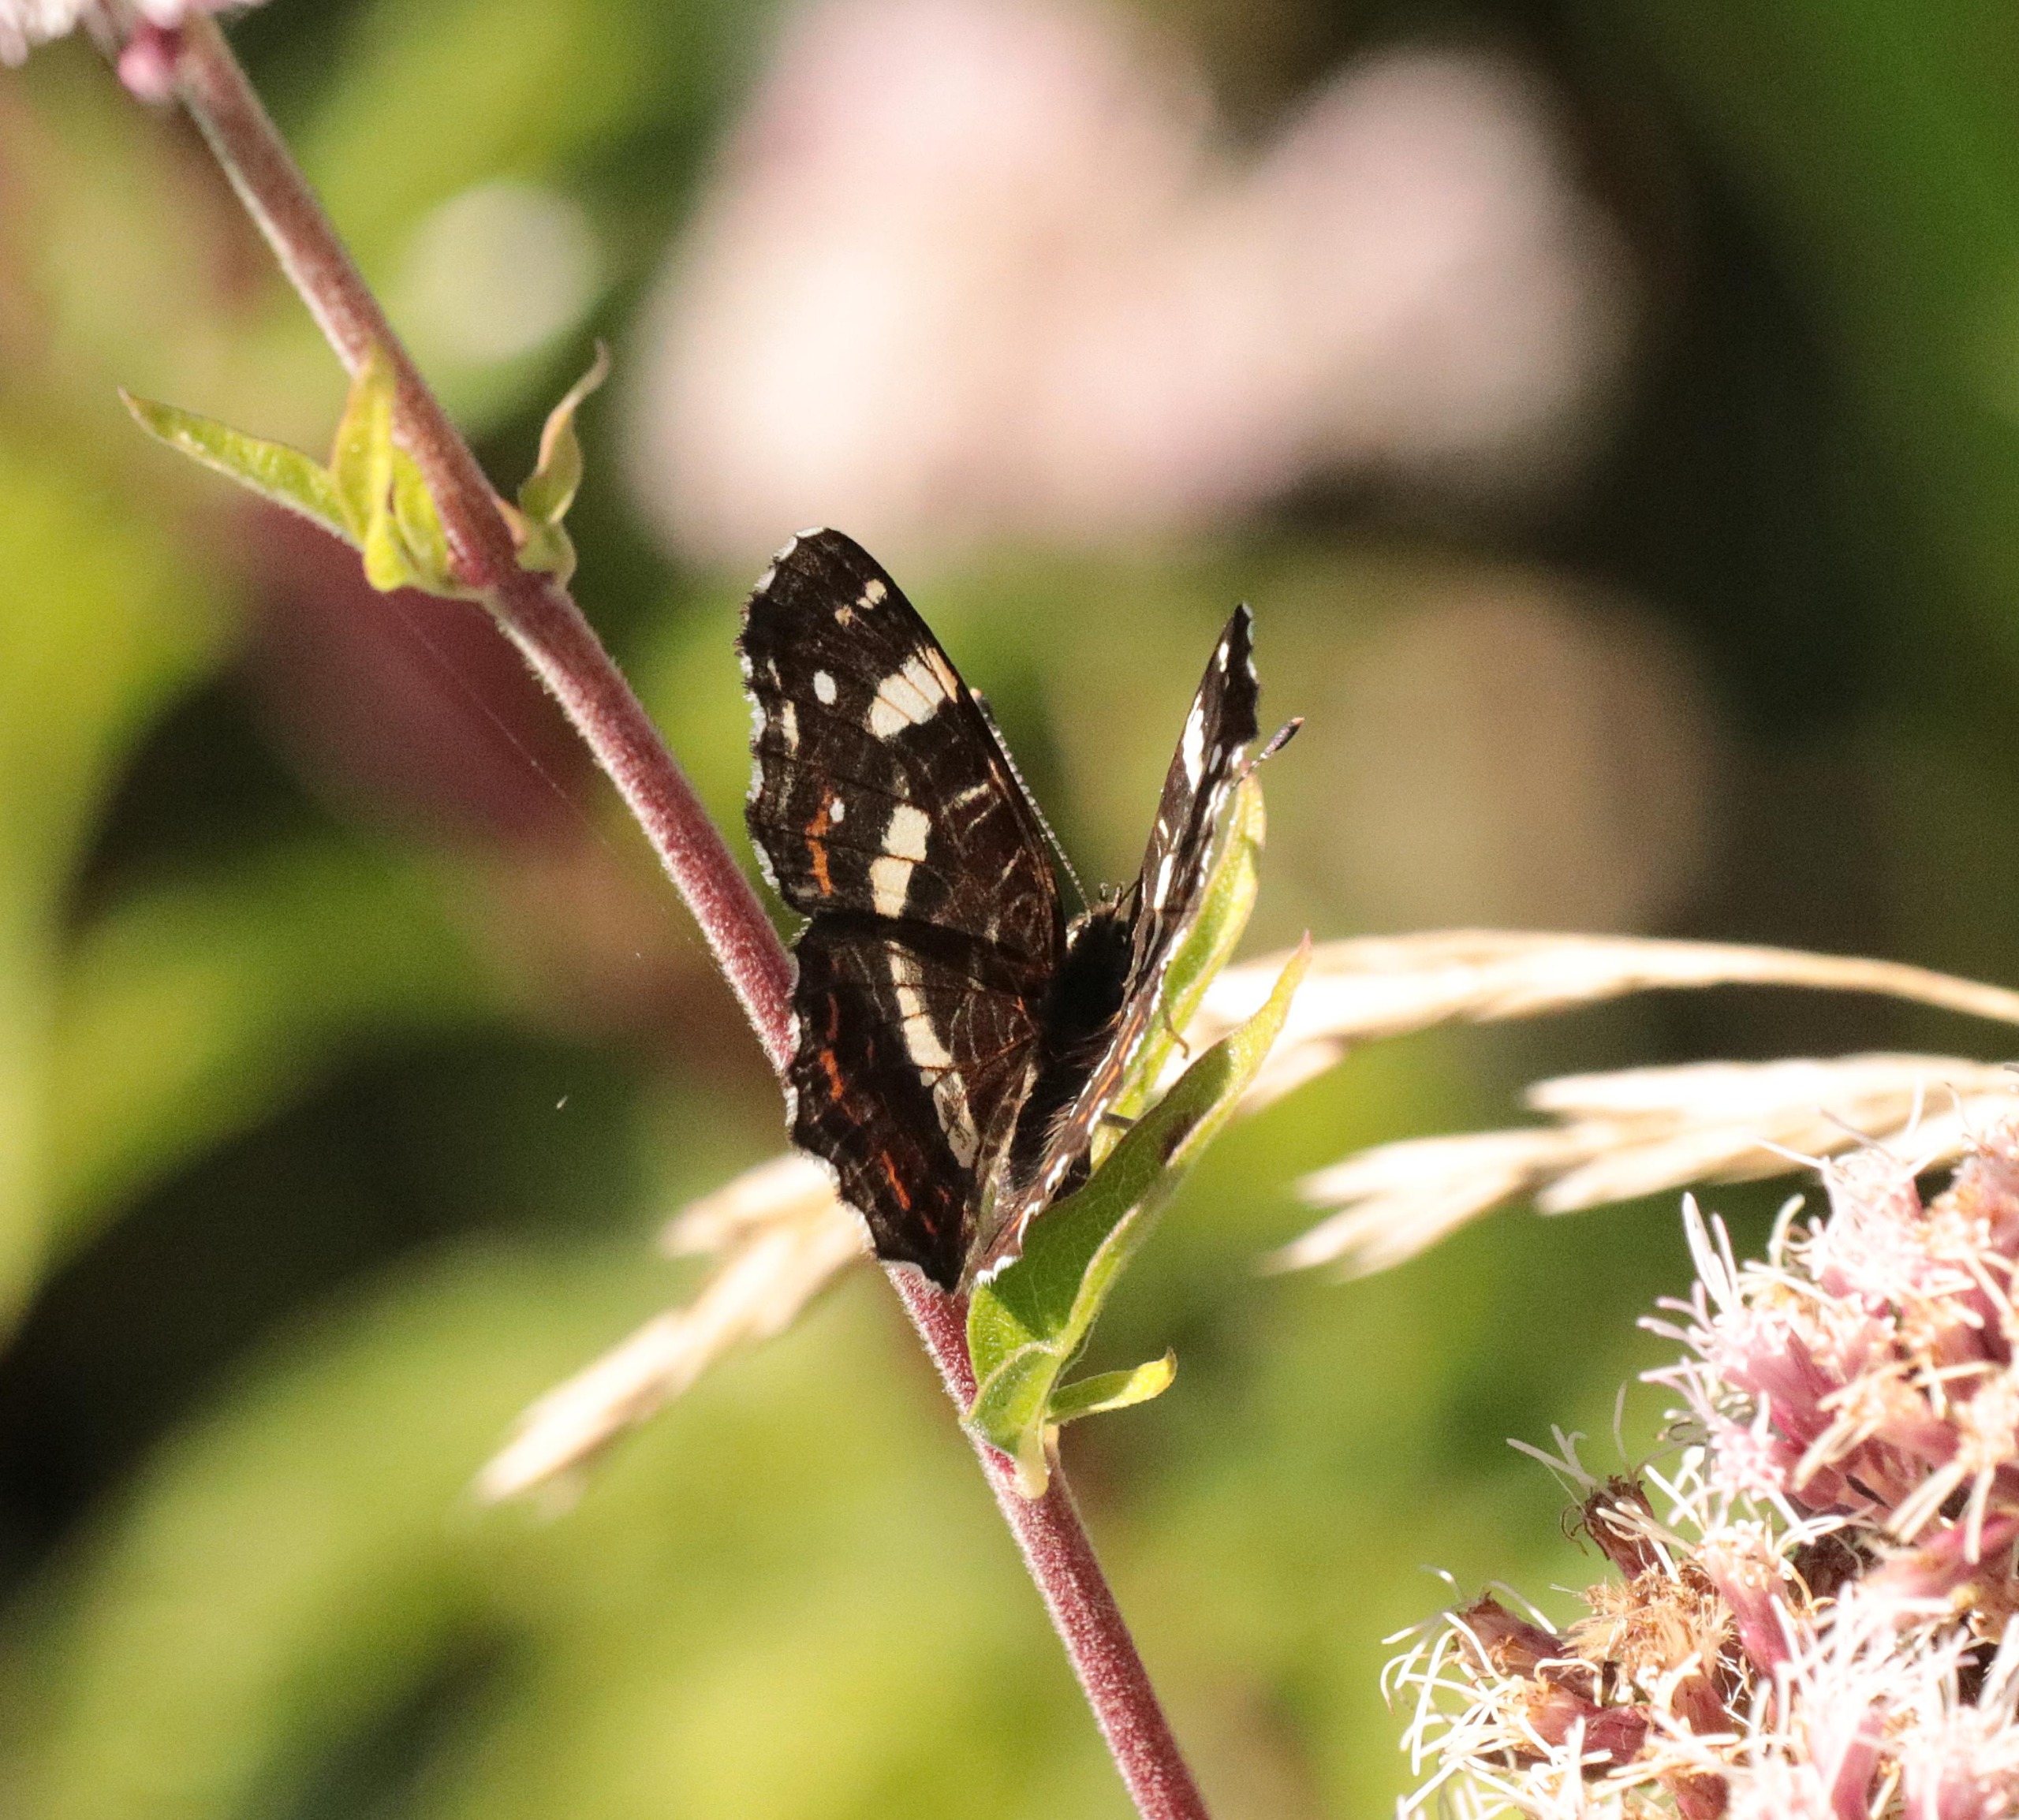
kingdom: Animalia
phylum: Arthropoda
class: Insecta
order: Lepidoptera
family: Nymphalidae
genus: Araschnia
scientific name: Araschnia levana
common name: Nældesommerfugl
